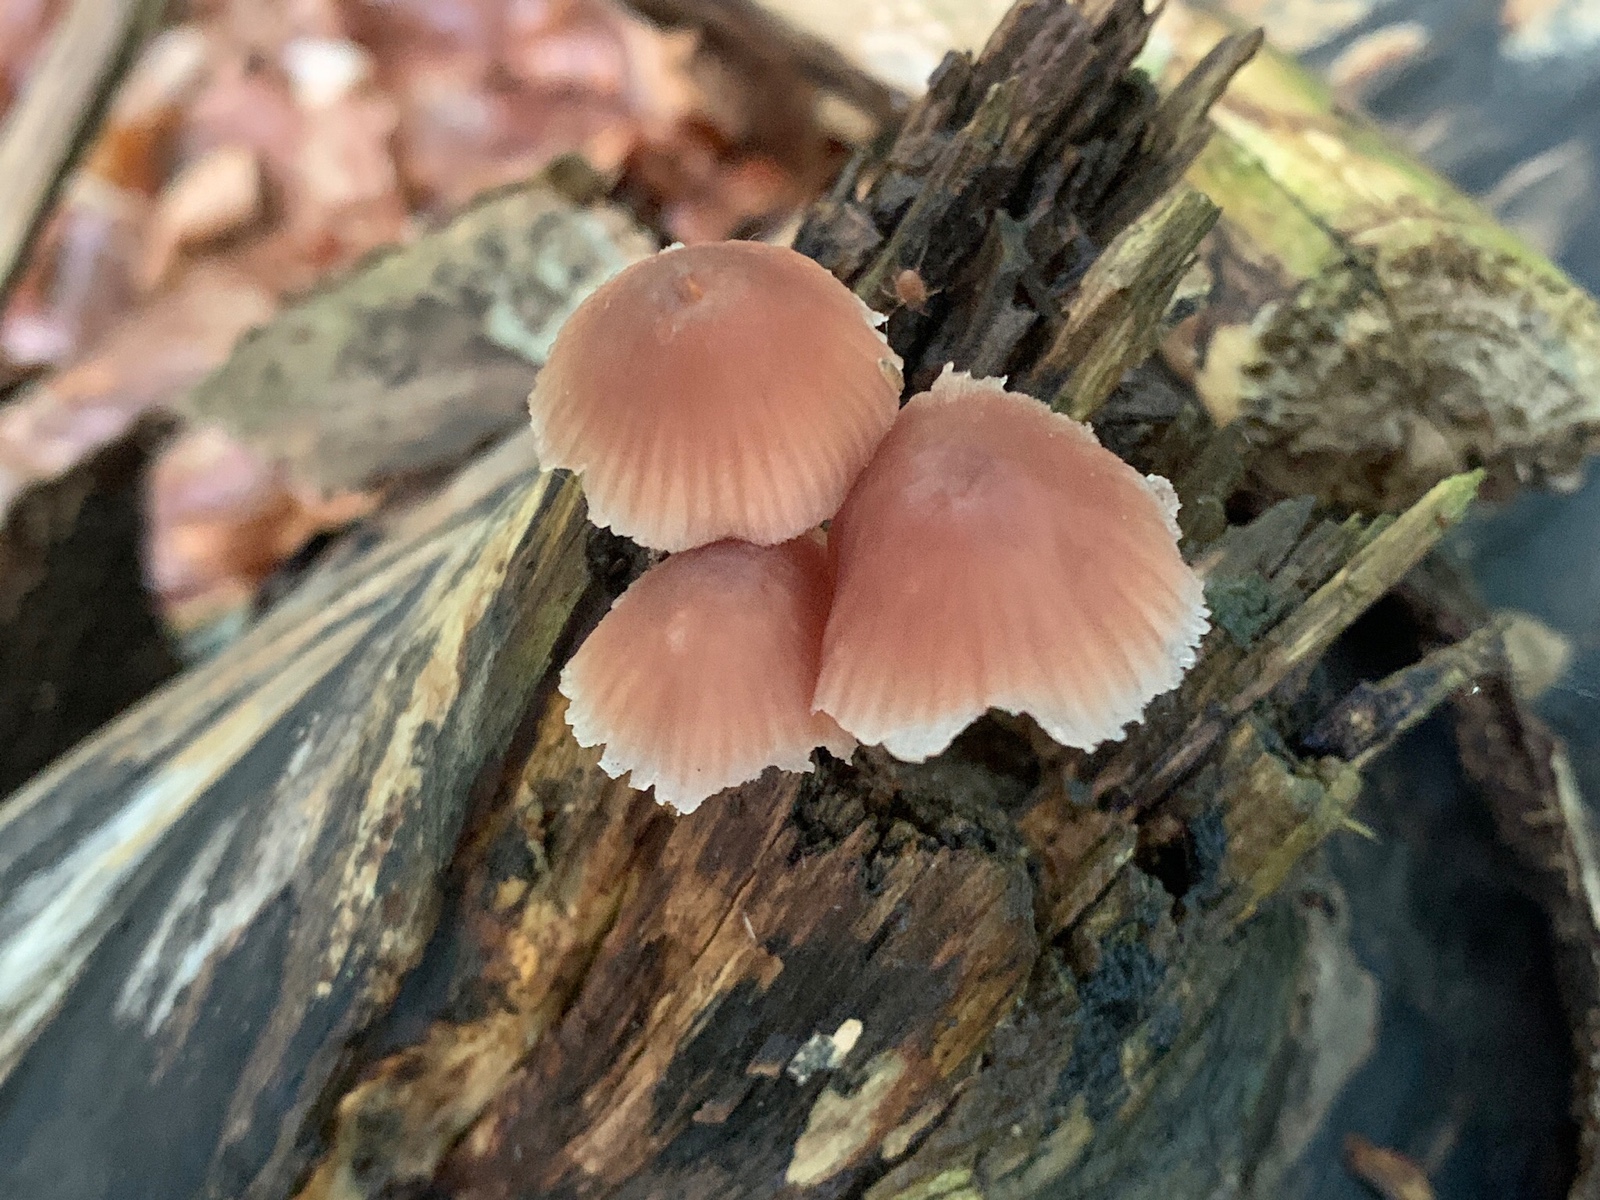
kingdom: Fungi
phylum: Basidiomycota
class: Agaricomycetes
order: Agaricales
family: Mycenaceae
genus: Mycena
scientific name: Mycena renati
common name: smuk huesvamp
